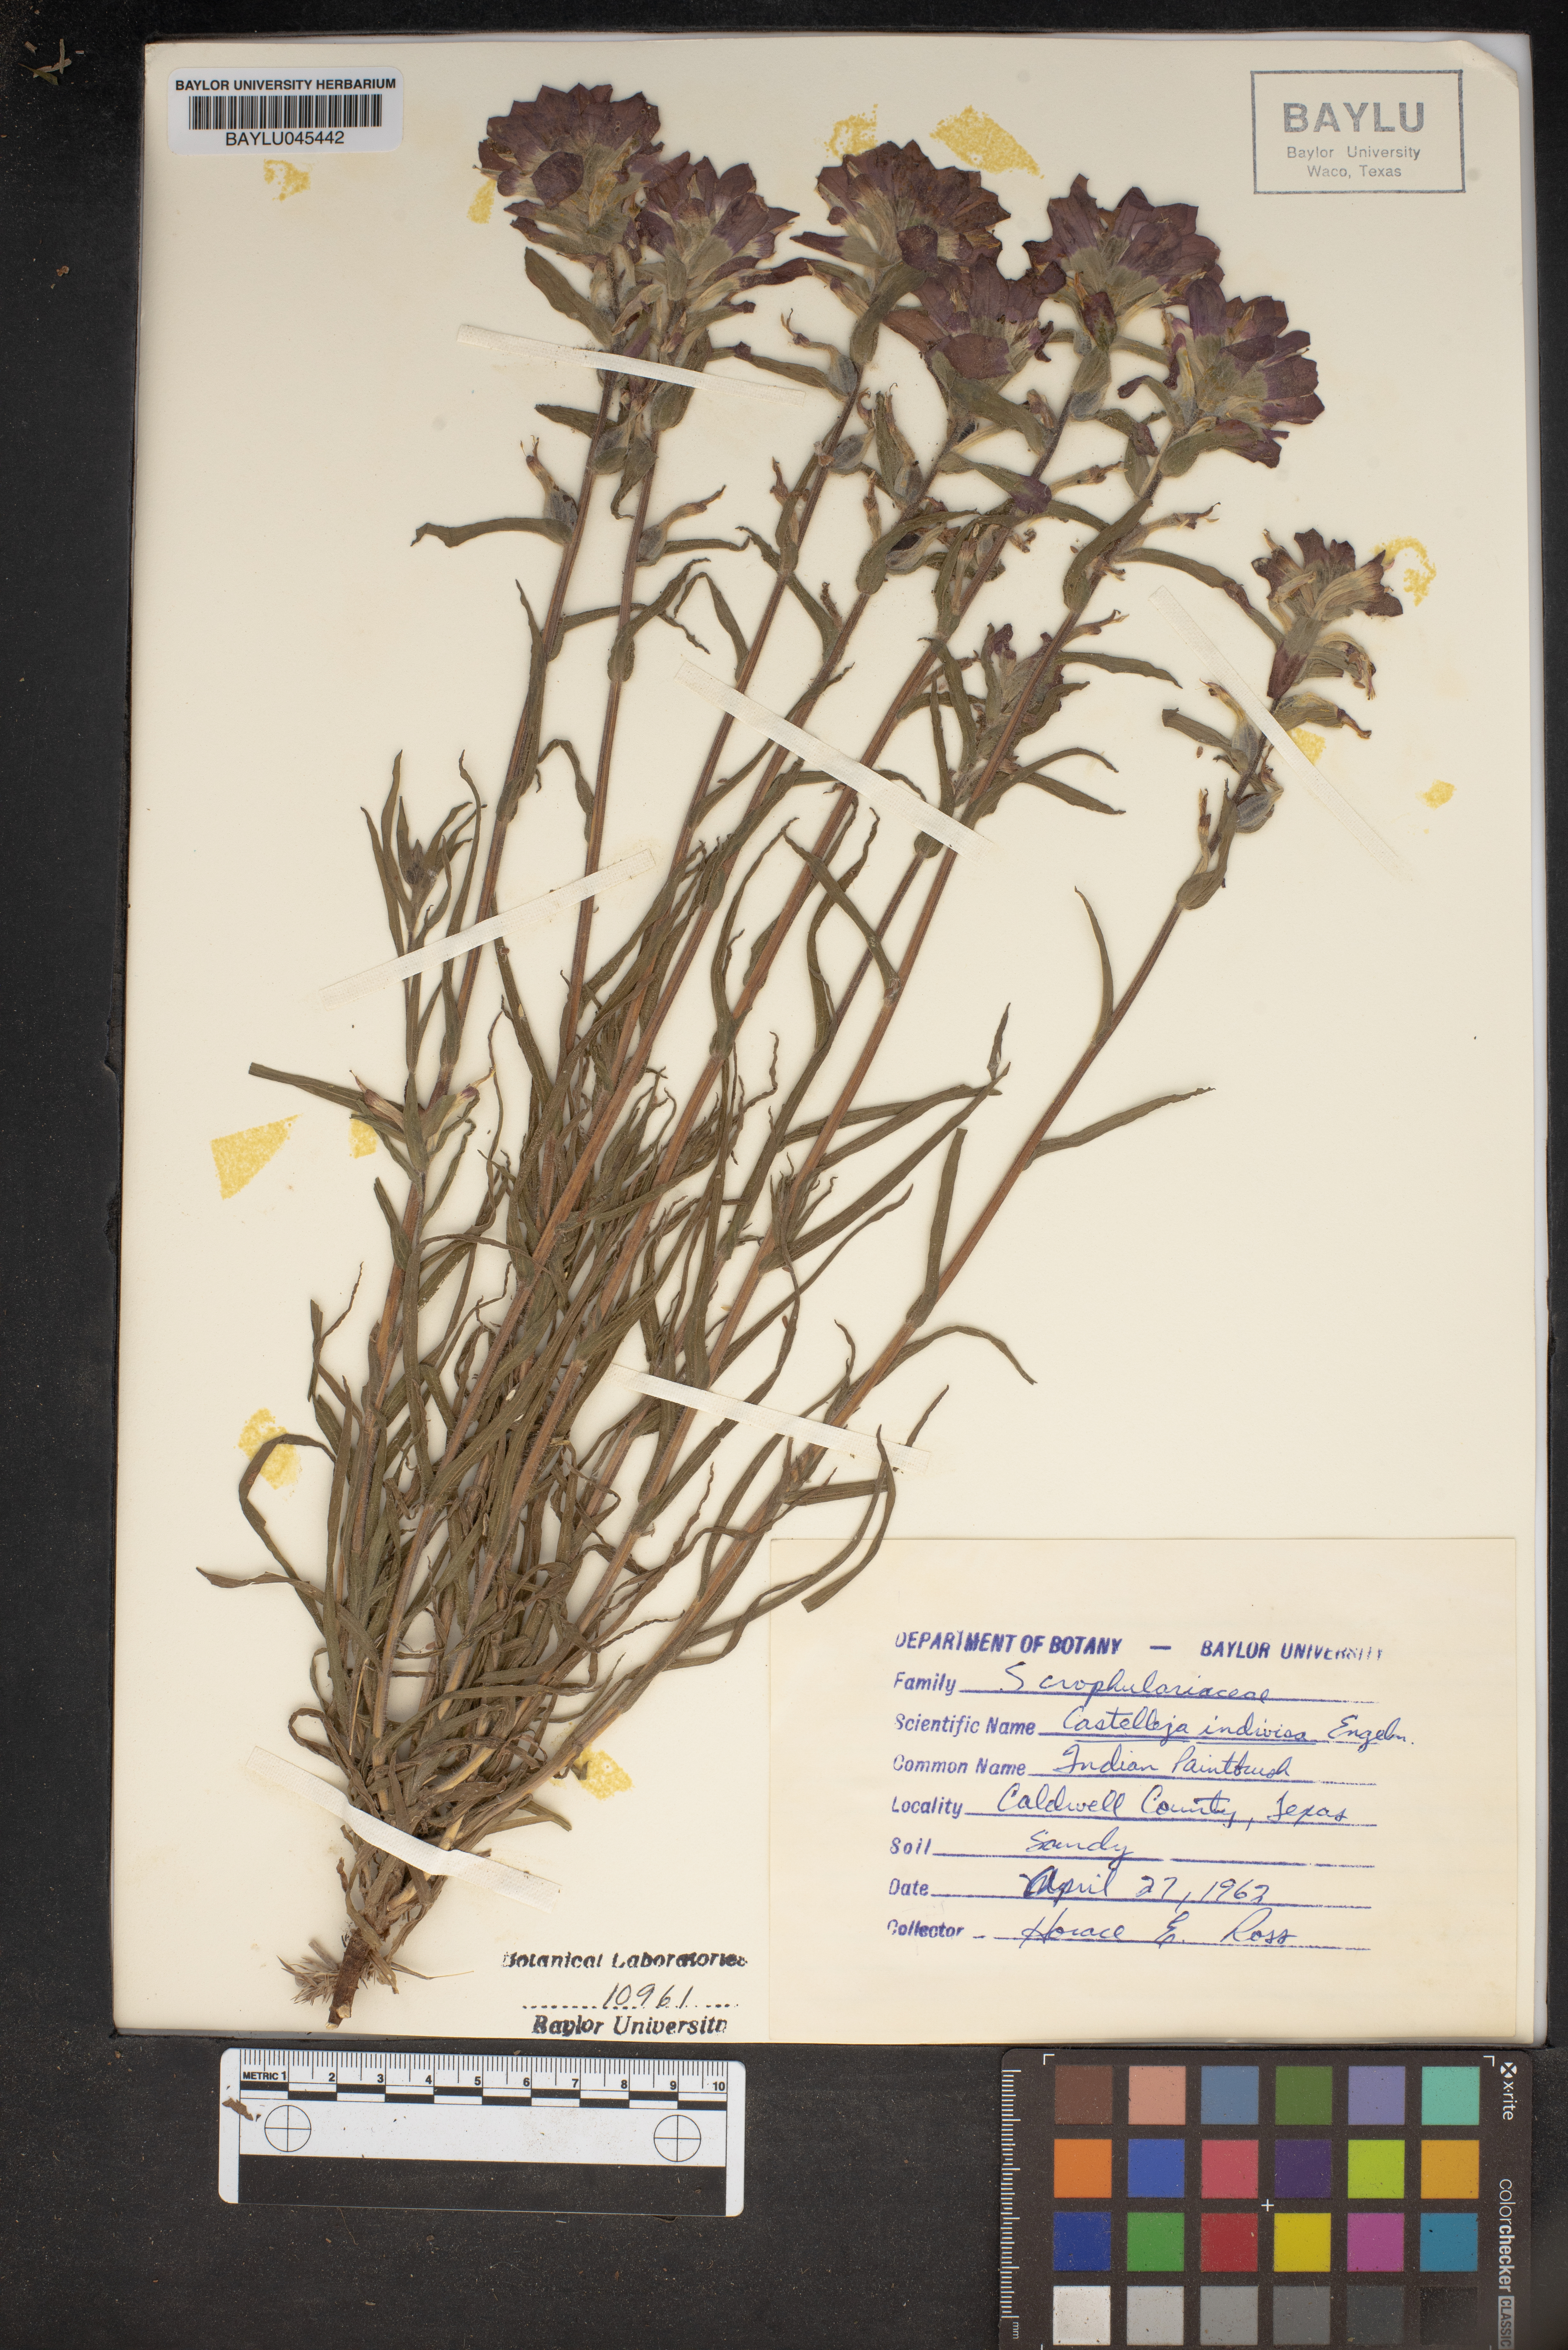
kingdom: Plantae
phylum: Tracheophyta
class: Magnoliopsida
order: Lamiales
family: Orobanchaceae
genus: Castilleja
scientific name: Castilleja indivisa
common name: Texas paintbrush
